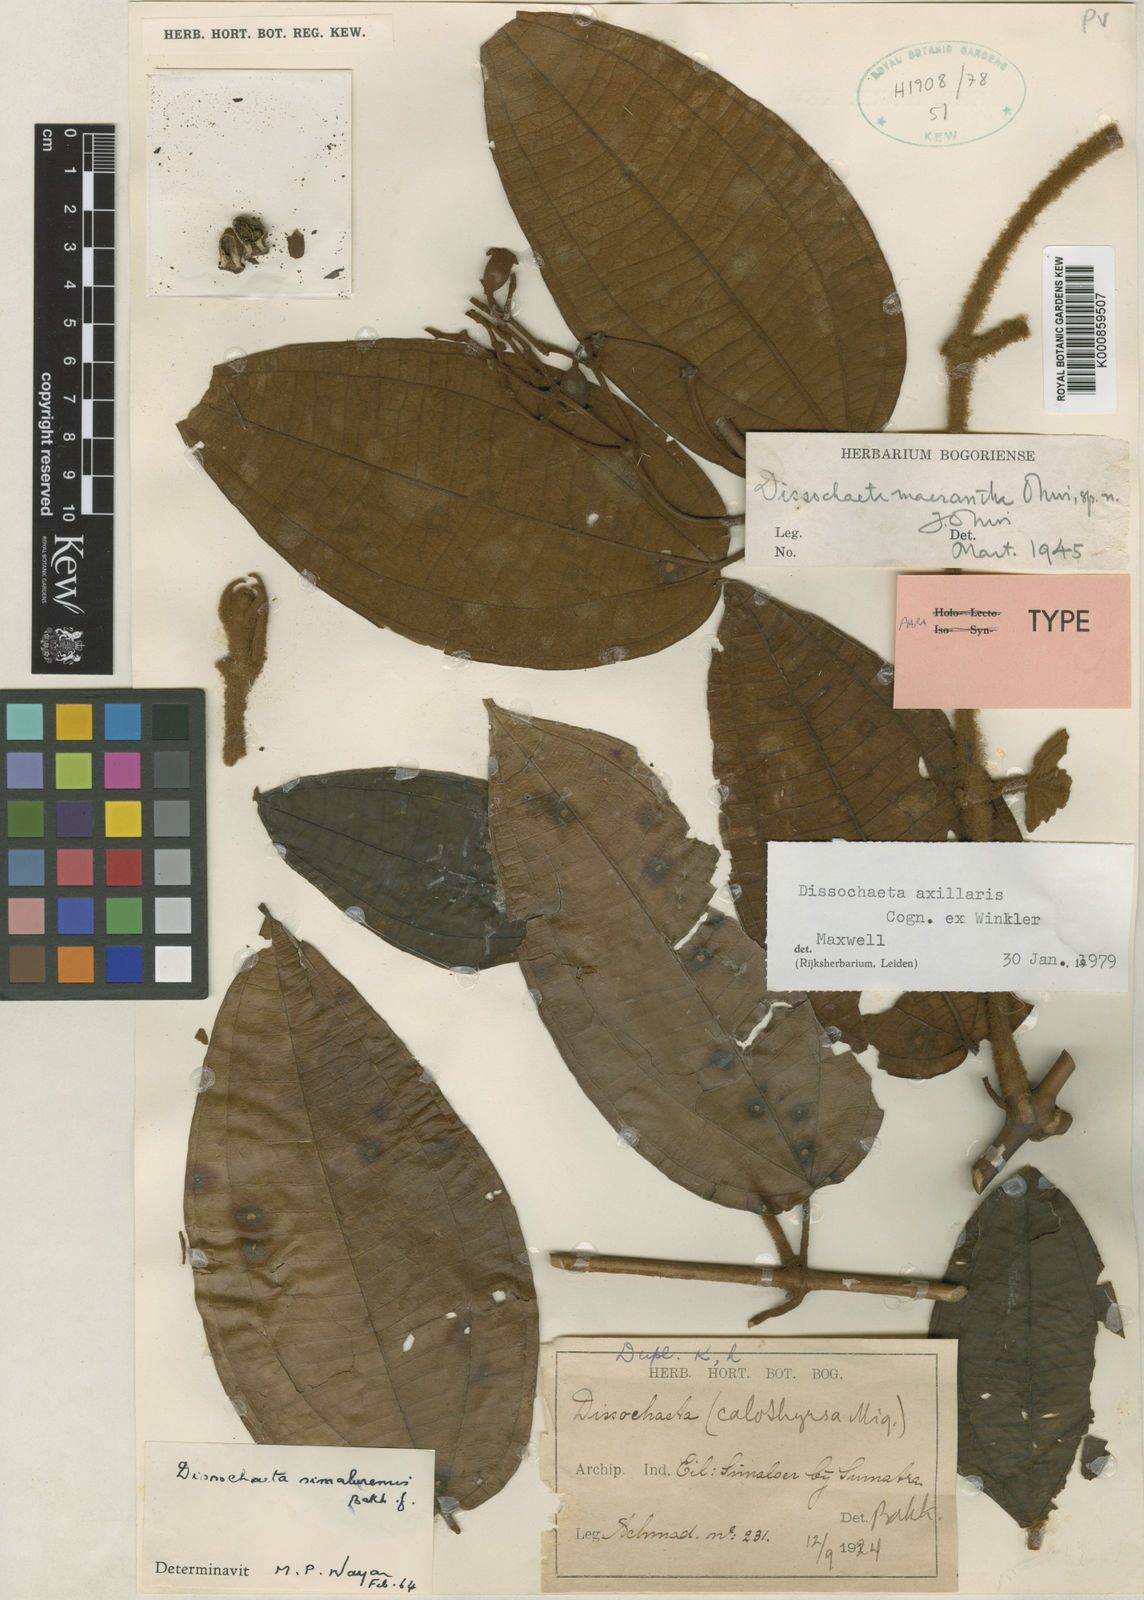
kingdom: Plantae
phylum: Tracheophyta
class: Magnoliopsida
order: Myrtales
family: Melastomataceae
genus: Dissochaeta
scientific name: Dissochaeta axillaris
